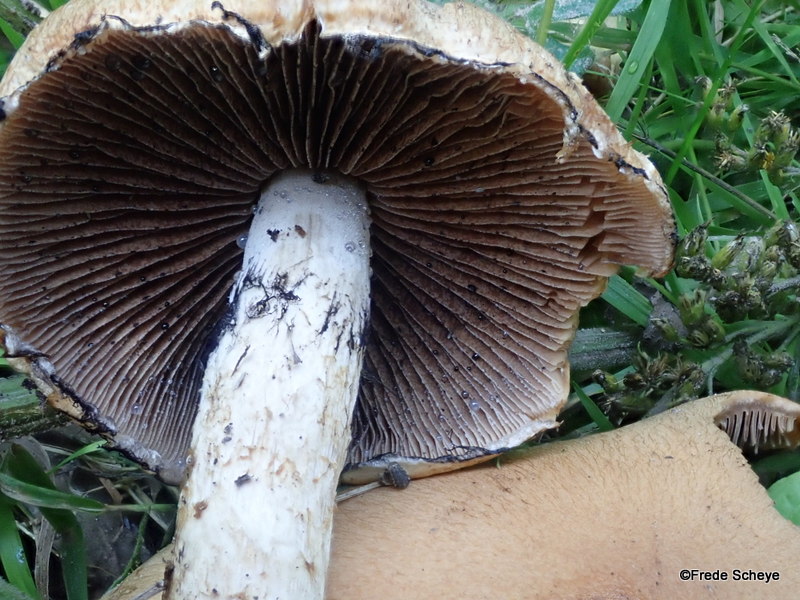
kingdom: Fungi
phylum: Basidiomycota
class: Agaricomycetes
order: Agaricales
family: Psathyrellaceae
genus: Lacrymaria
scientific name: Lacrymaria lacrymabunda
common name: grædende mørkhat
